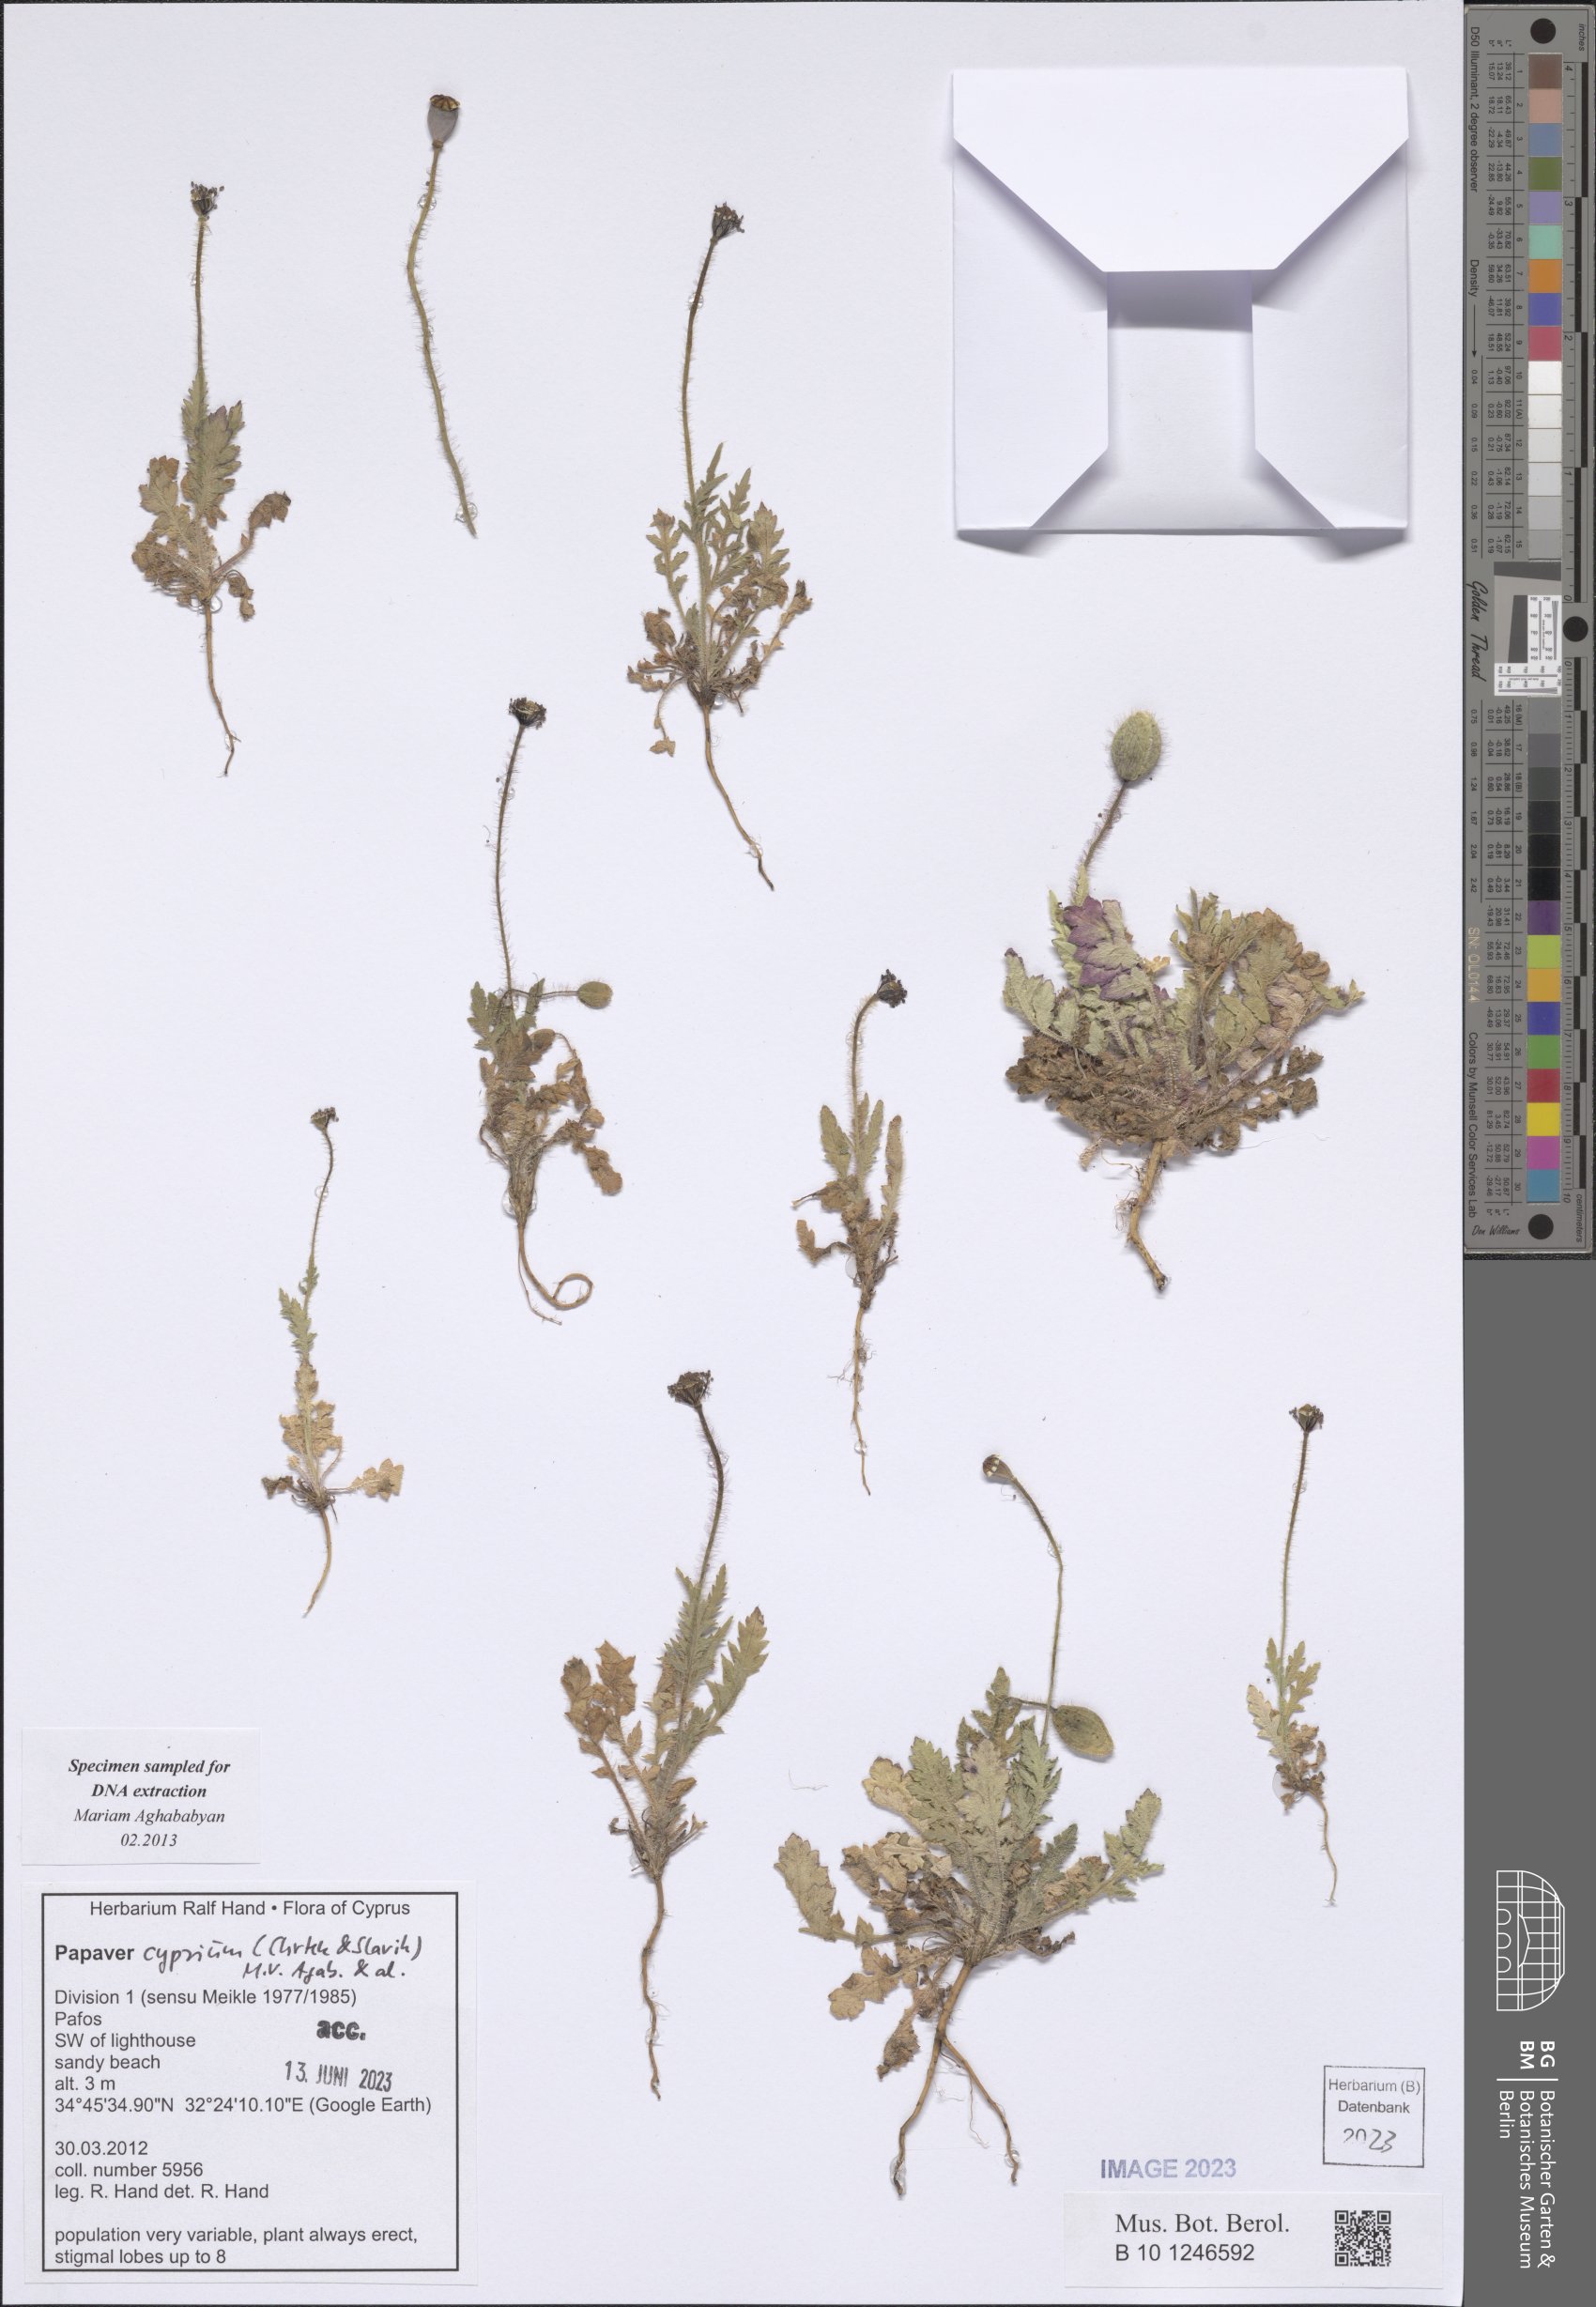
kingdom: Plantae
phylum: Tracheophyta
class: Magnoliopsida
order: Ranunculales
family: Papaveraceae
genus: Papaver
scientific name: Papaver cyprium
